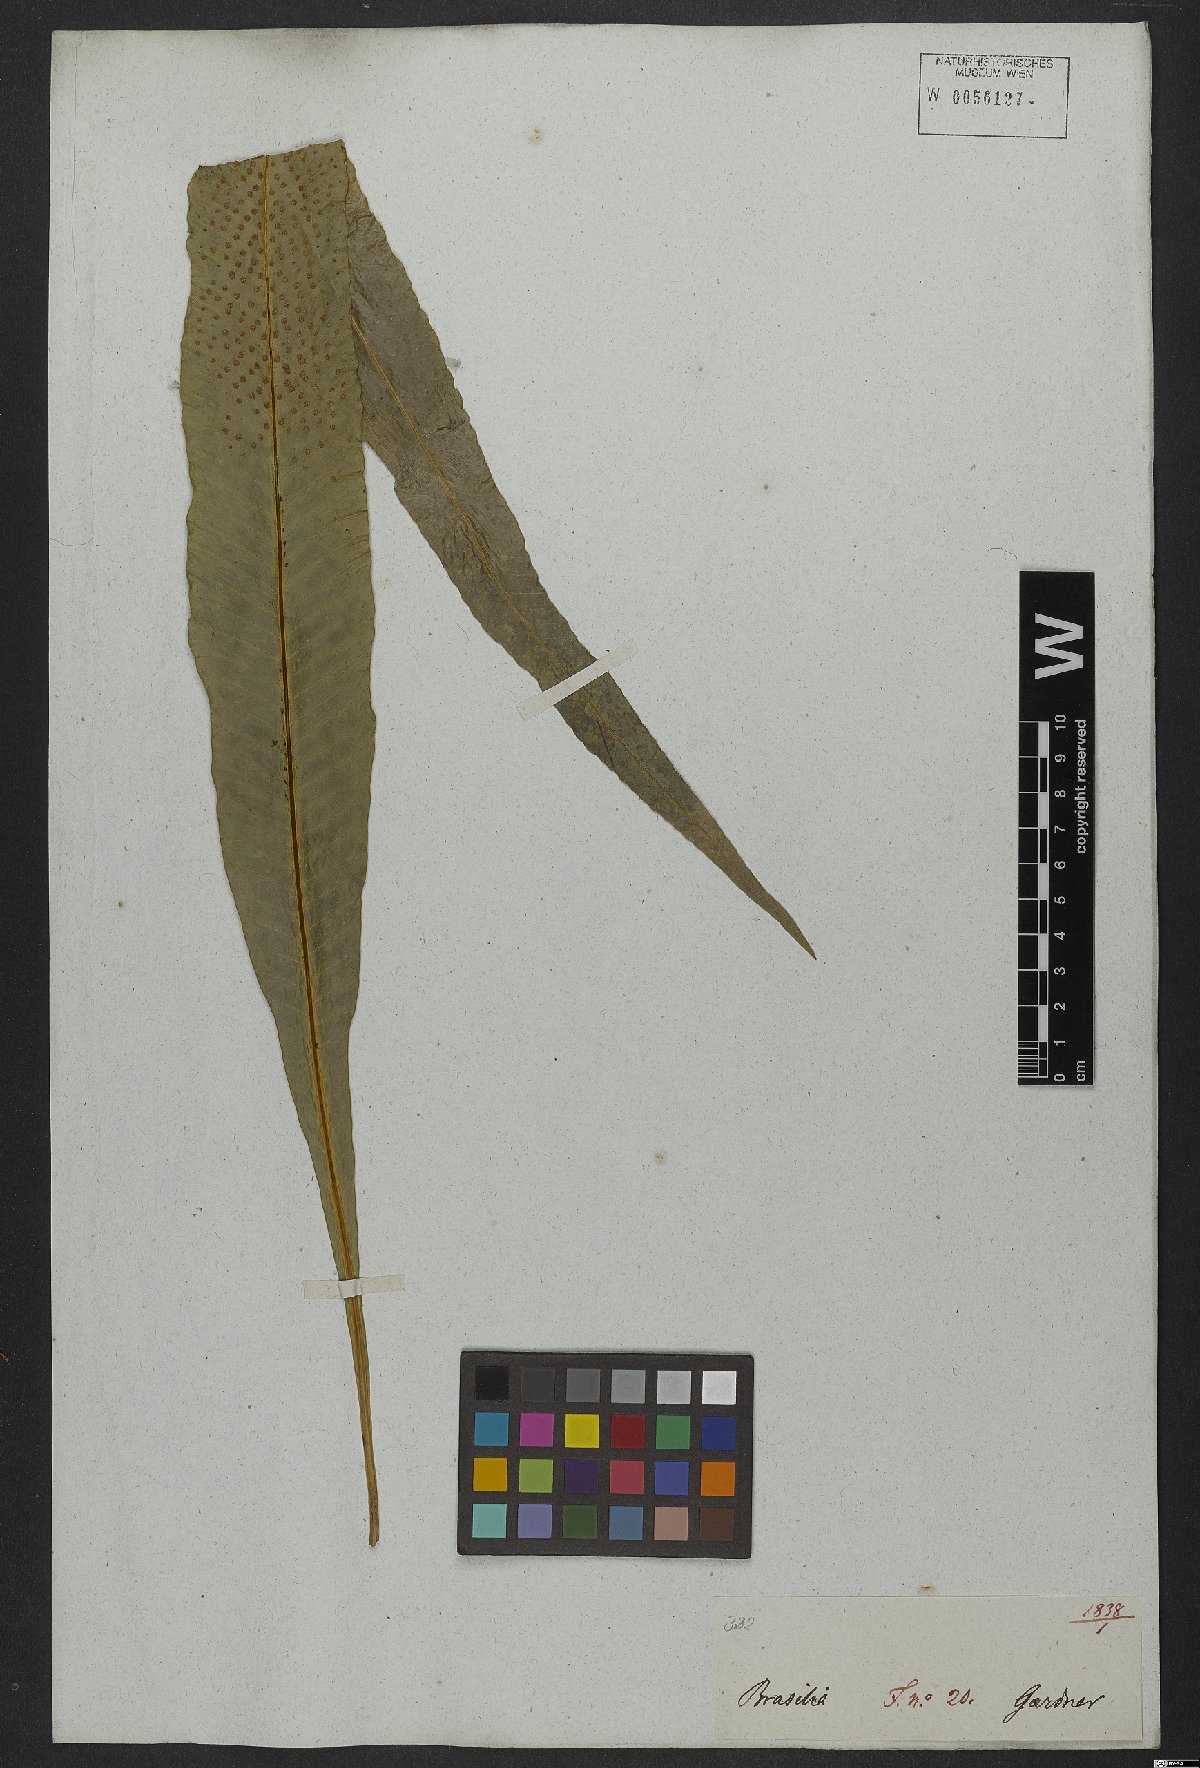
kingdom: Plantae
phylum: Tracheophyta
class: Polypodiopsida
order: Polypodiales
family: Polypodiaceae
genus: Campyloneurum
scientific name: Campyloneurum phyllitidis
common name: Cow-tongue fern
